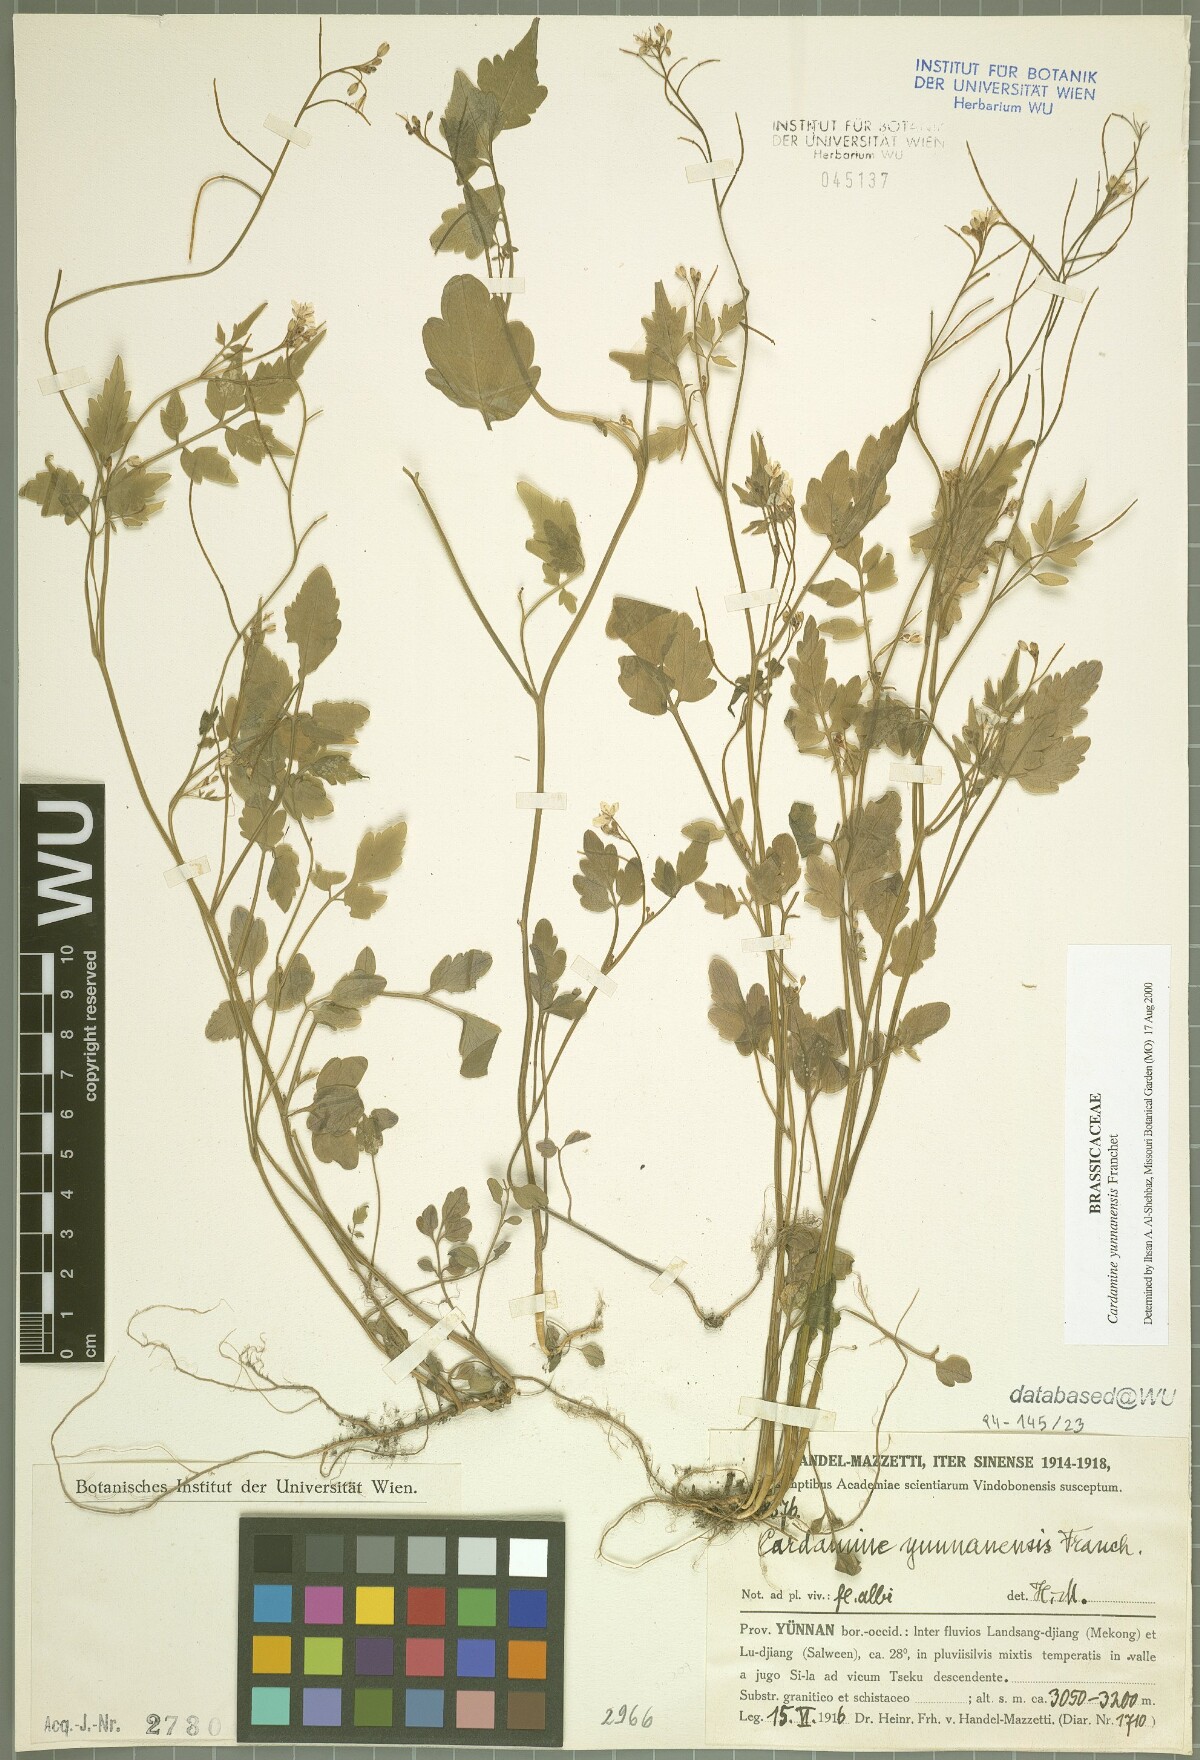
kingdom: Plantae
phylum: Tracheophyta
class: Magnoliopsida
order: Brassicales
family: Brassicaceae
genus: Cardamine
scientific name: Cardamine yunnanensis
